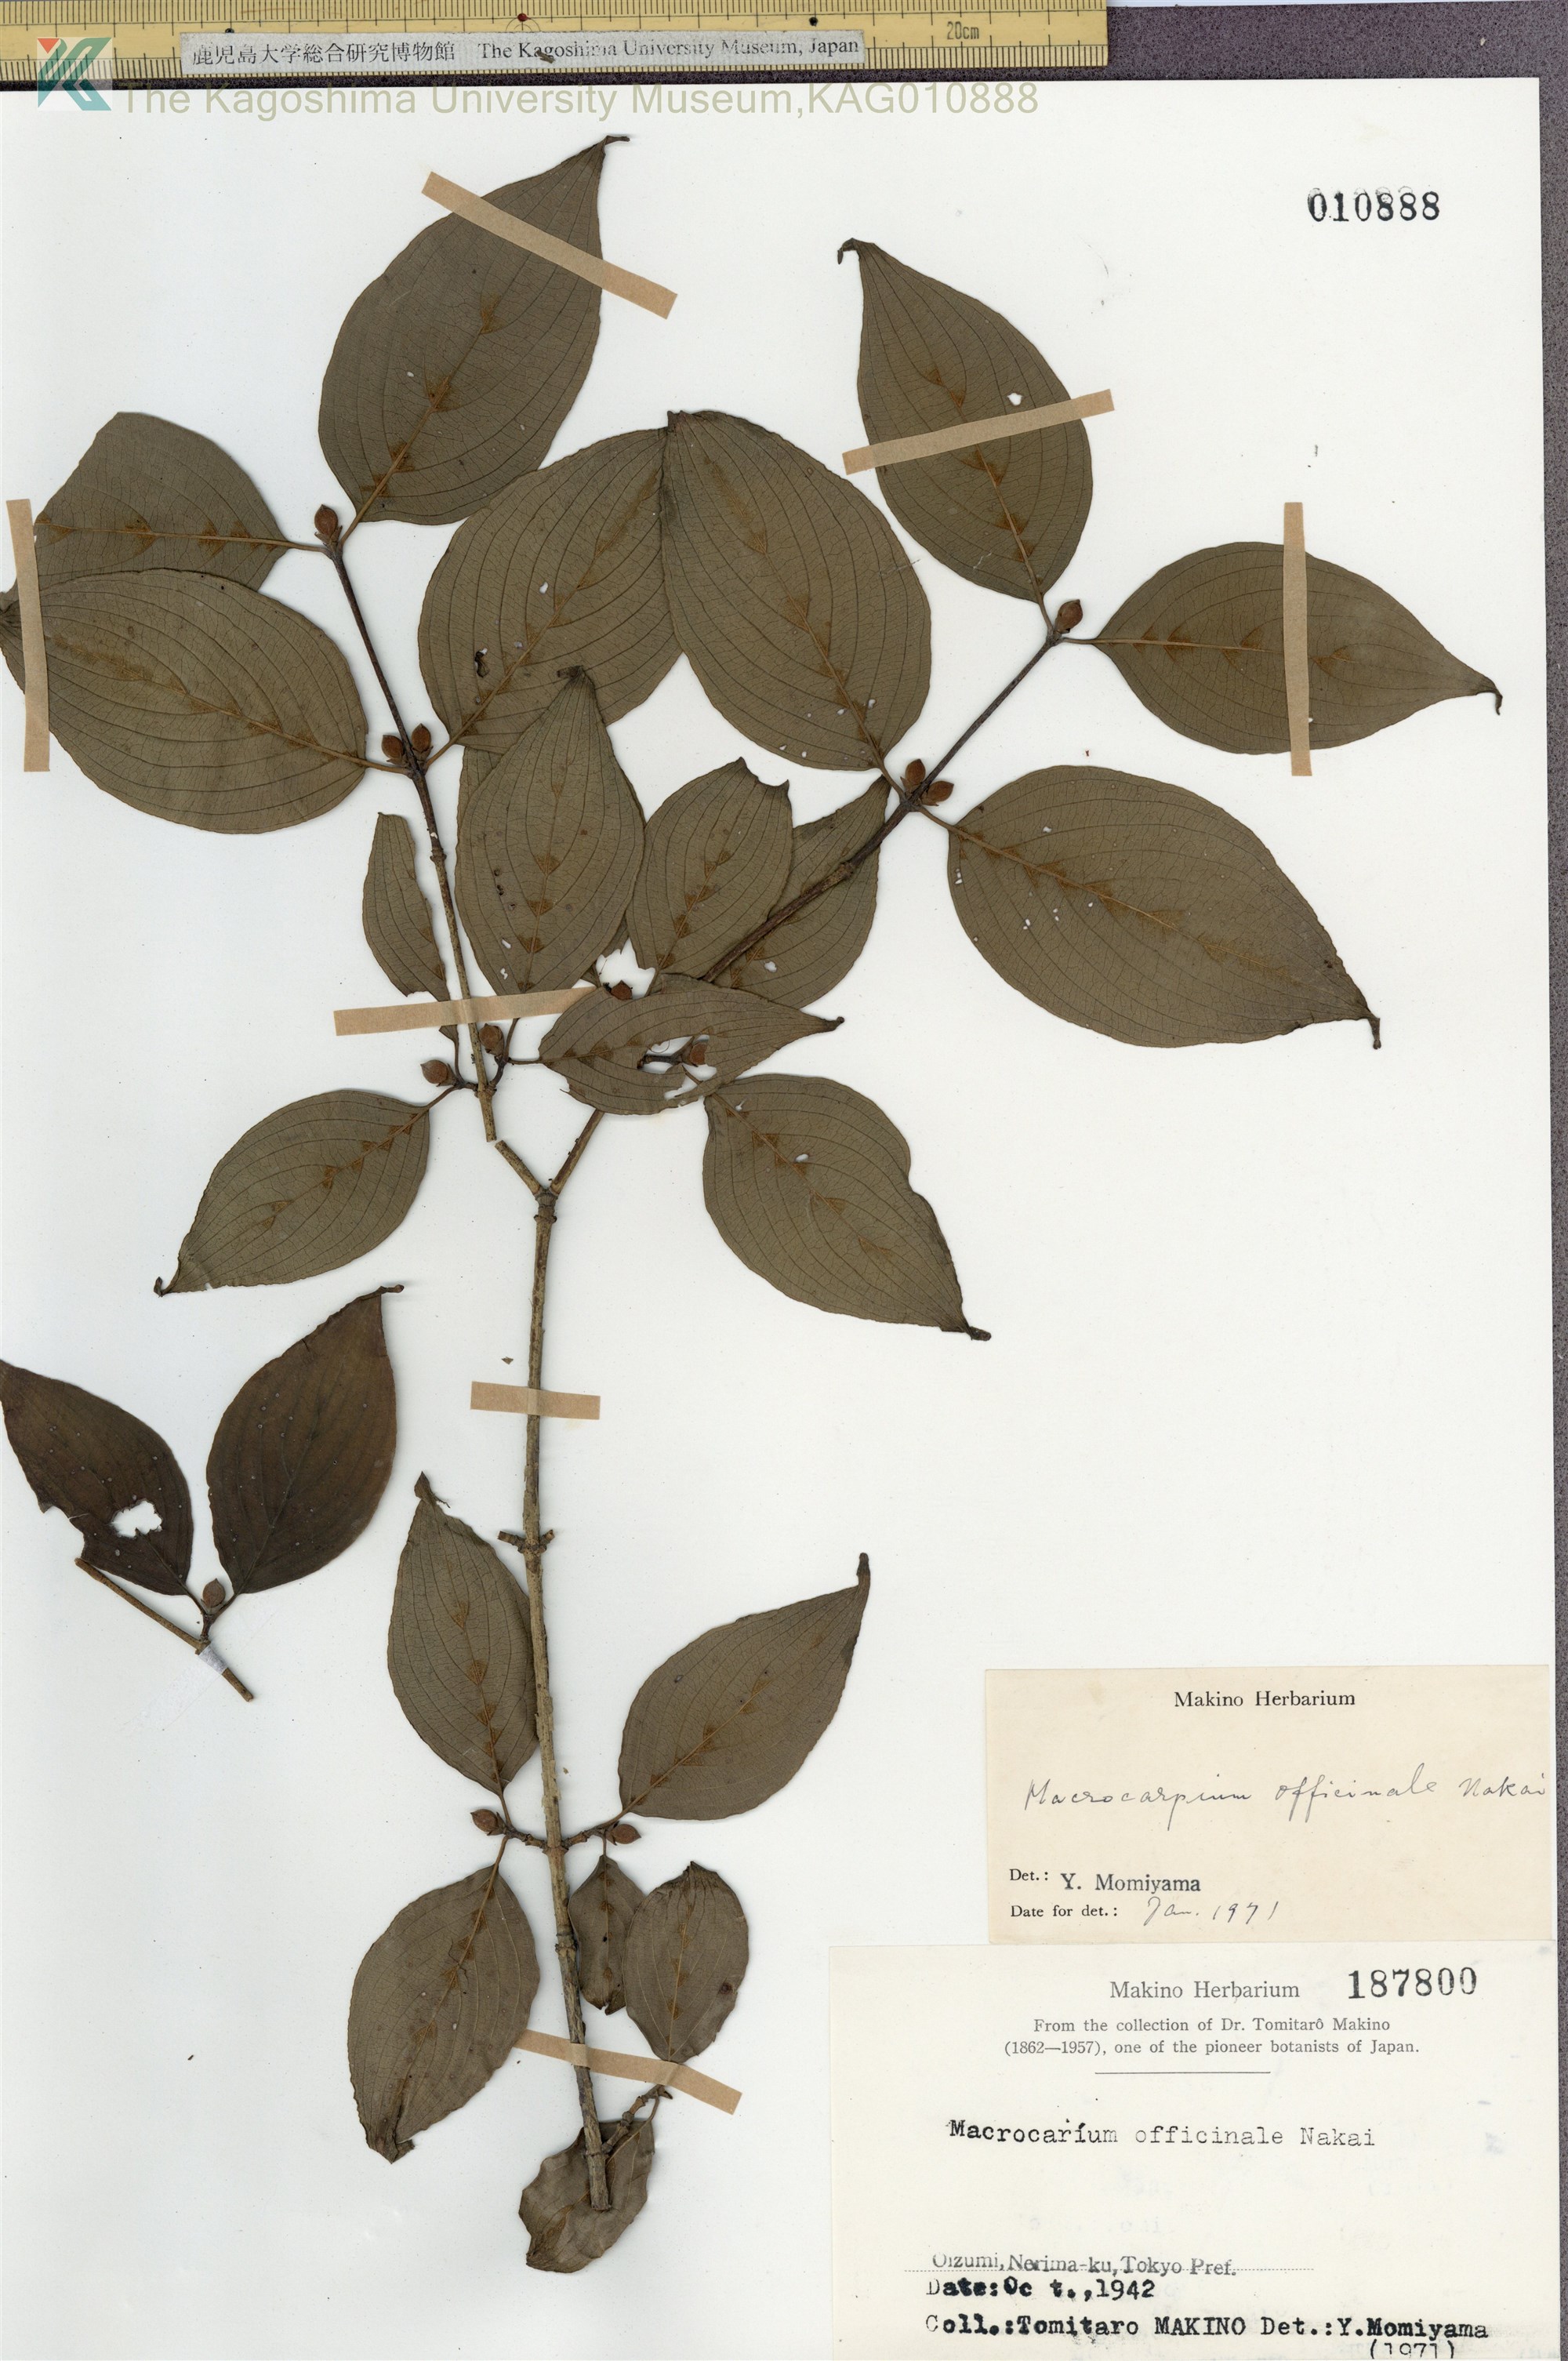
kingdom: Plantae
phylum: Tracheophyta
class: Magnoliopsida
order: Cornales
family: Cornaceae
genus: Cornus
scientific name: Cornus officinalis
